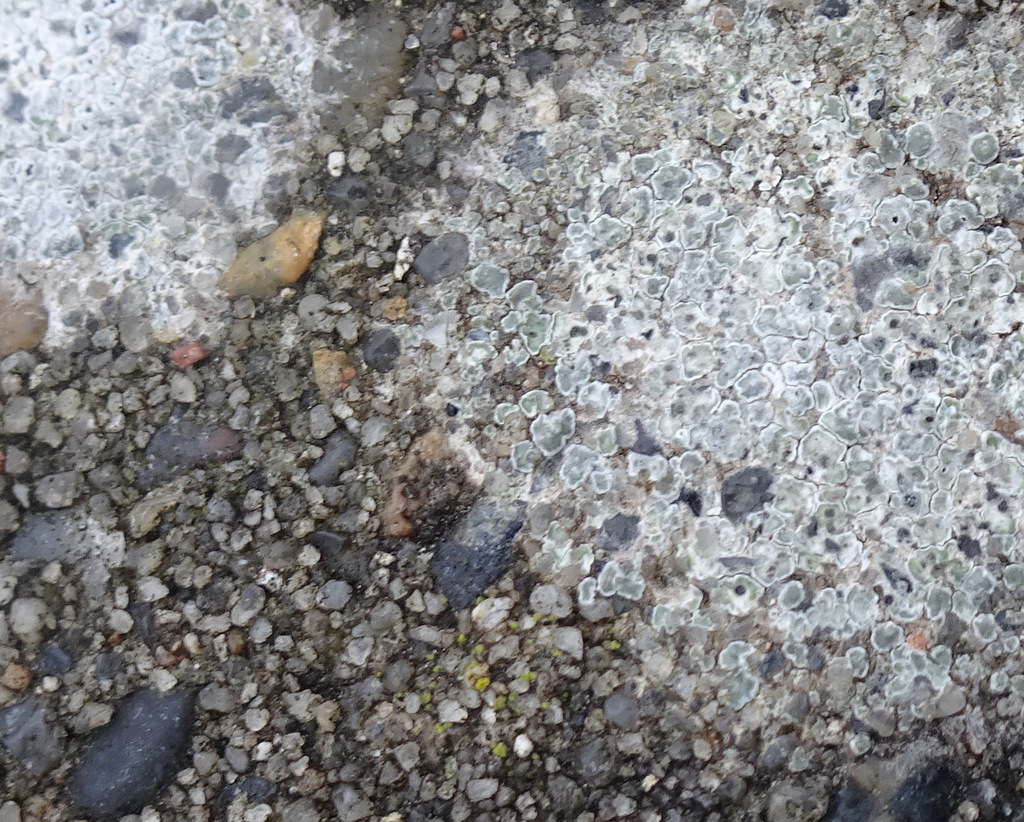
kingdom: Fungi
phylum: Ascomycota
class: Lecanoromycetes
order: Pertusariales
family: Megasporaceae
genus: Circinaria
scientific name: Circinaria contorta
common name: indviklet hulskivelav
